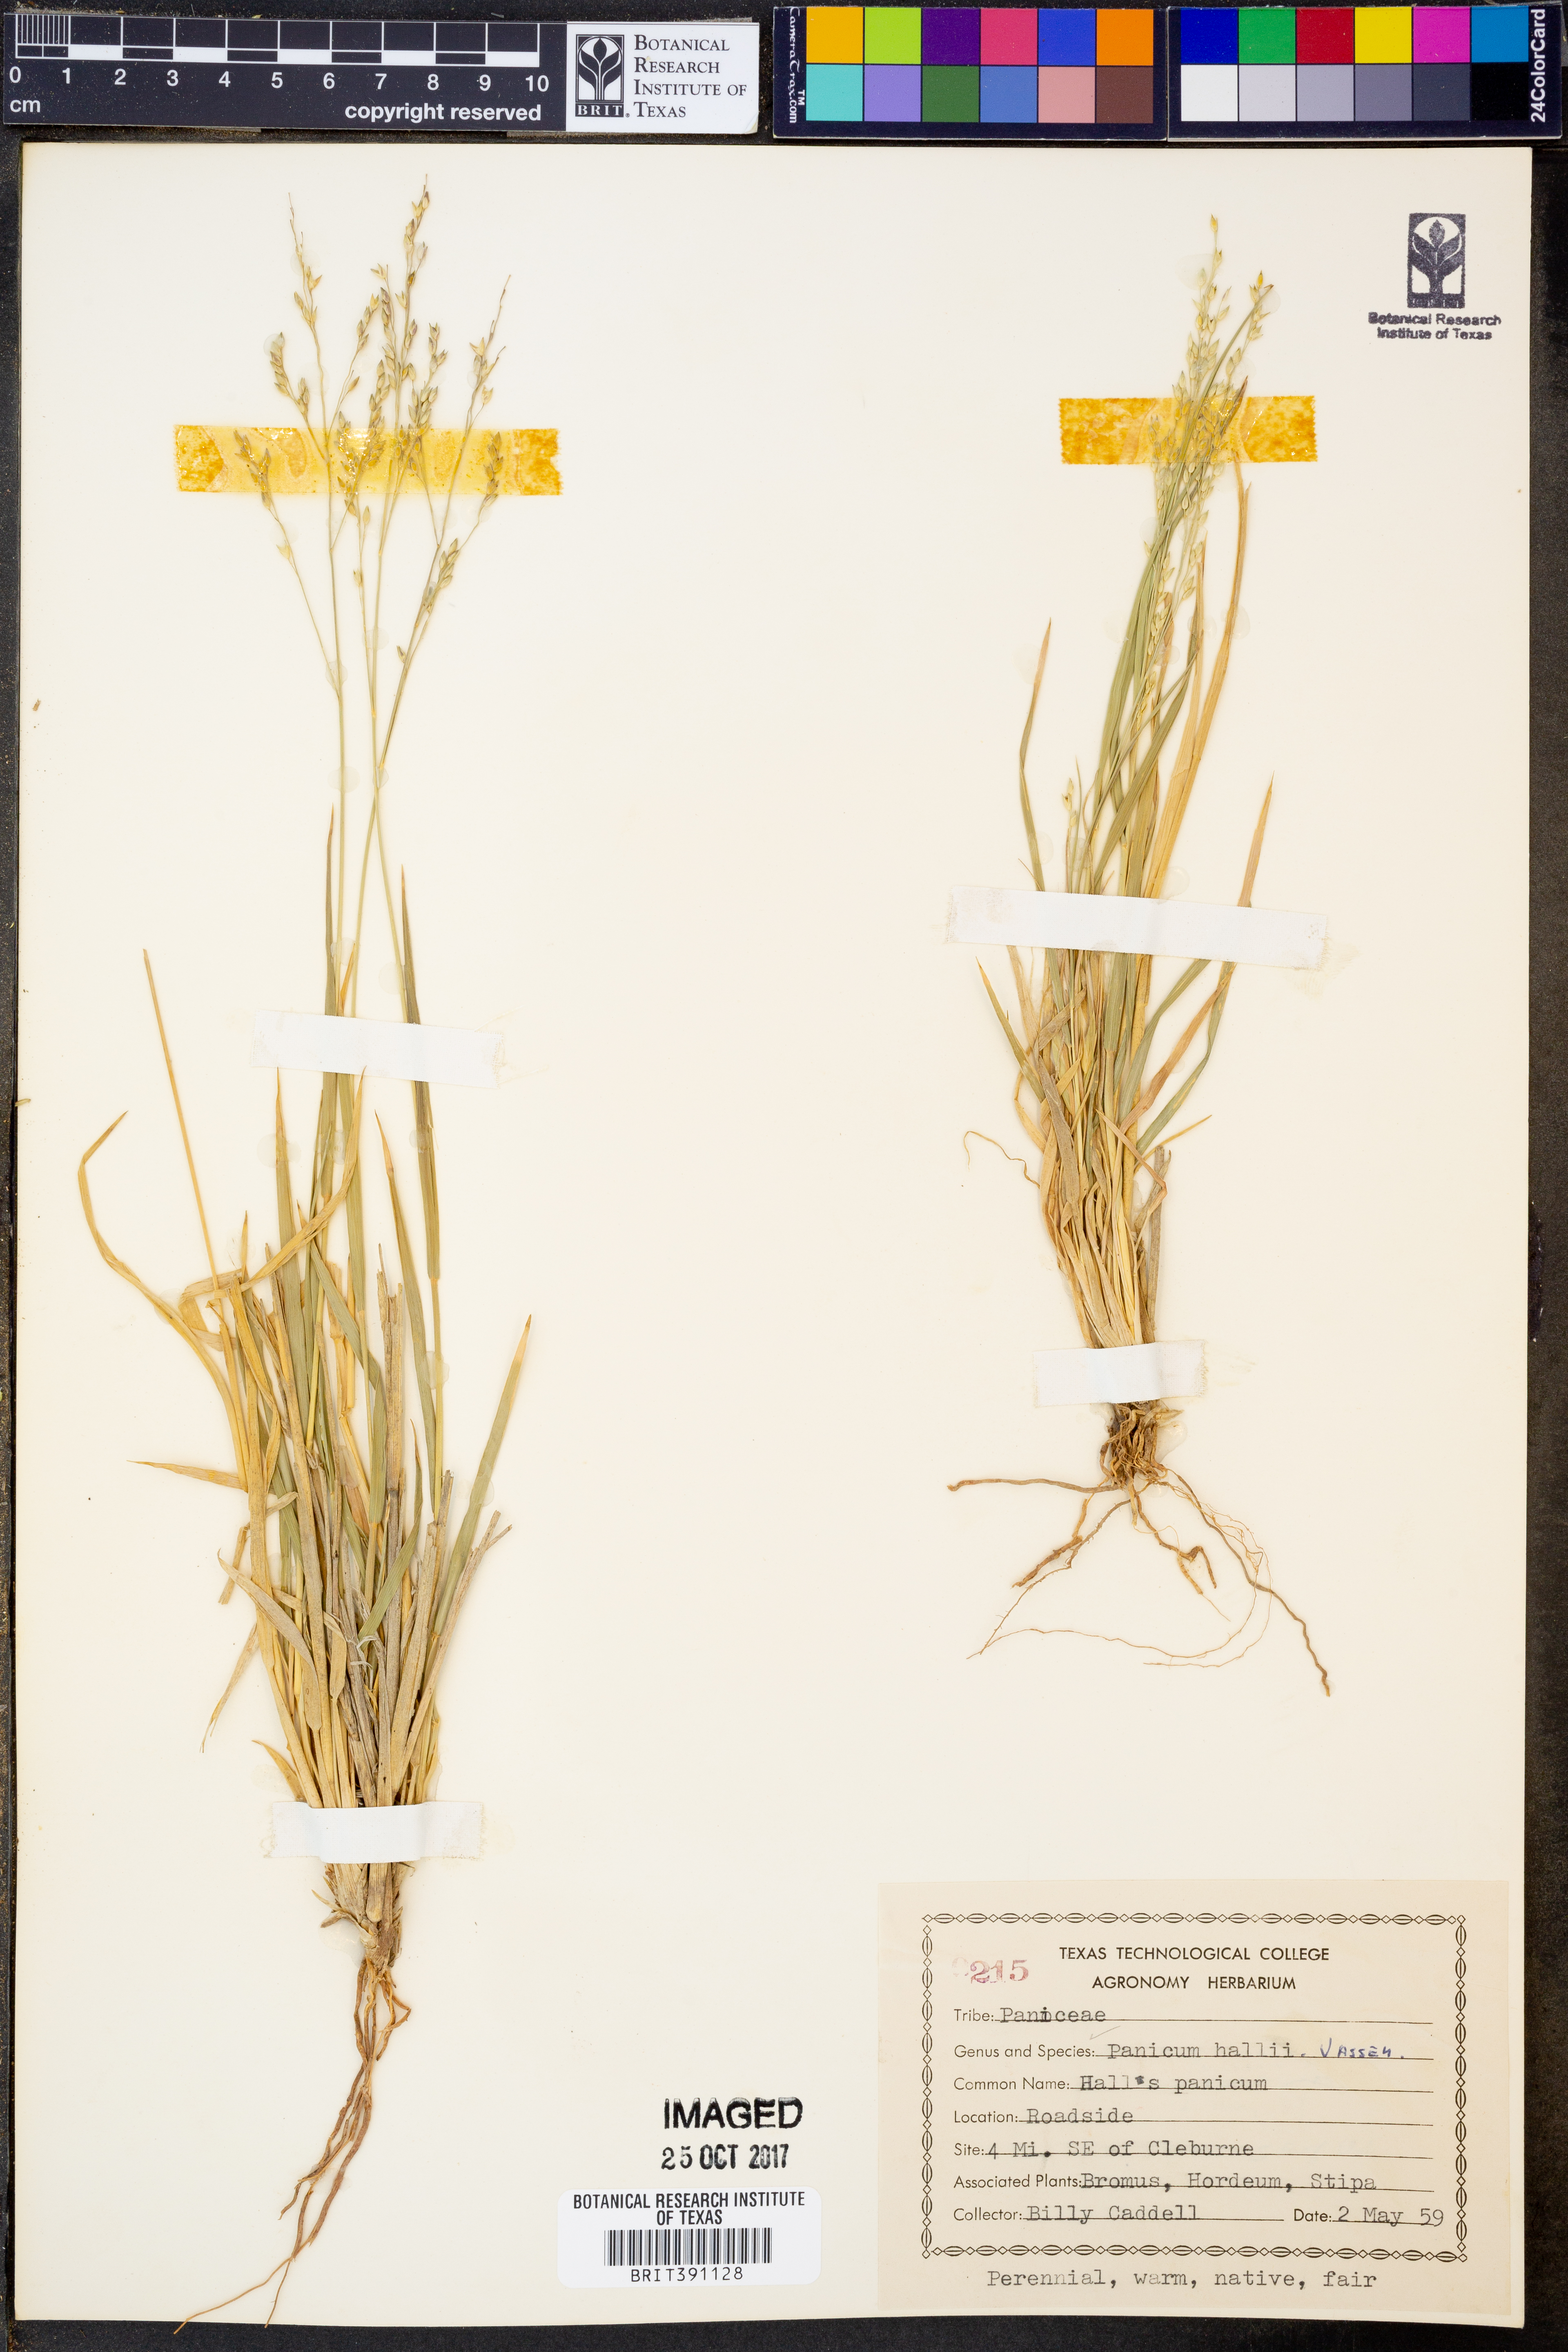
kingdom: Plantae
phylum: Tracheophyta
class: Liliopsida
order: Poales
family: Poaceae
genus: Panicum
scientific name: Panicum hallii
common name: Hall's witchgrass
